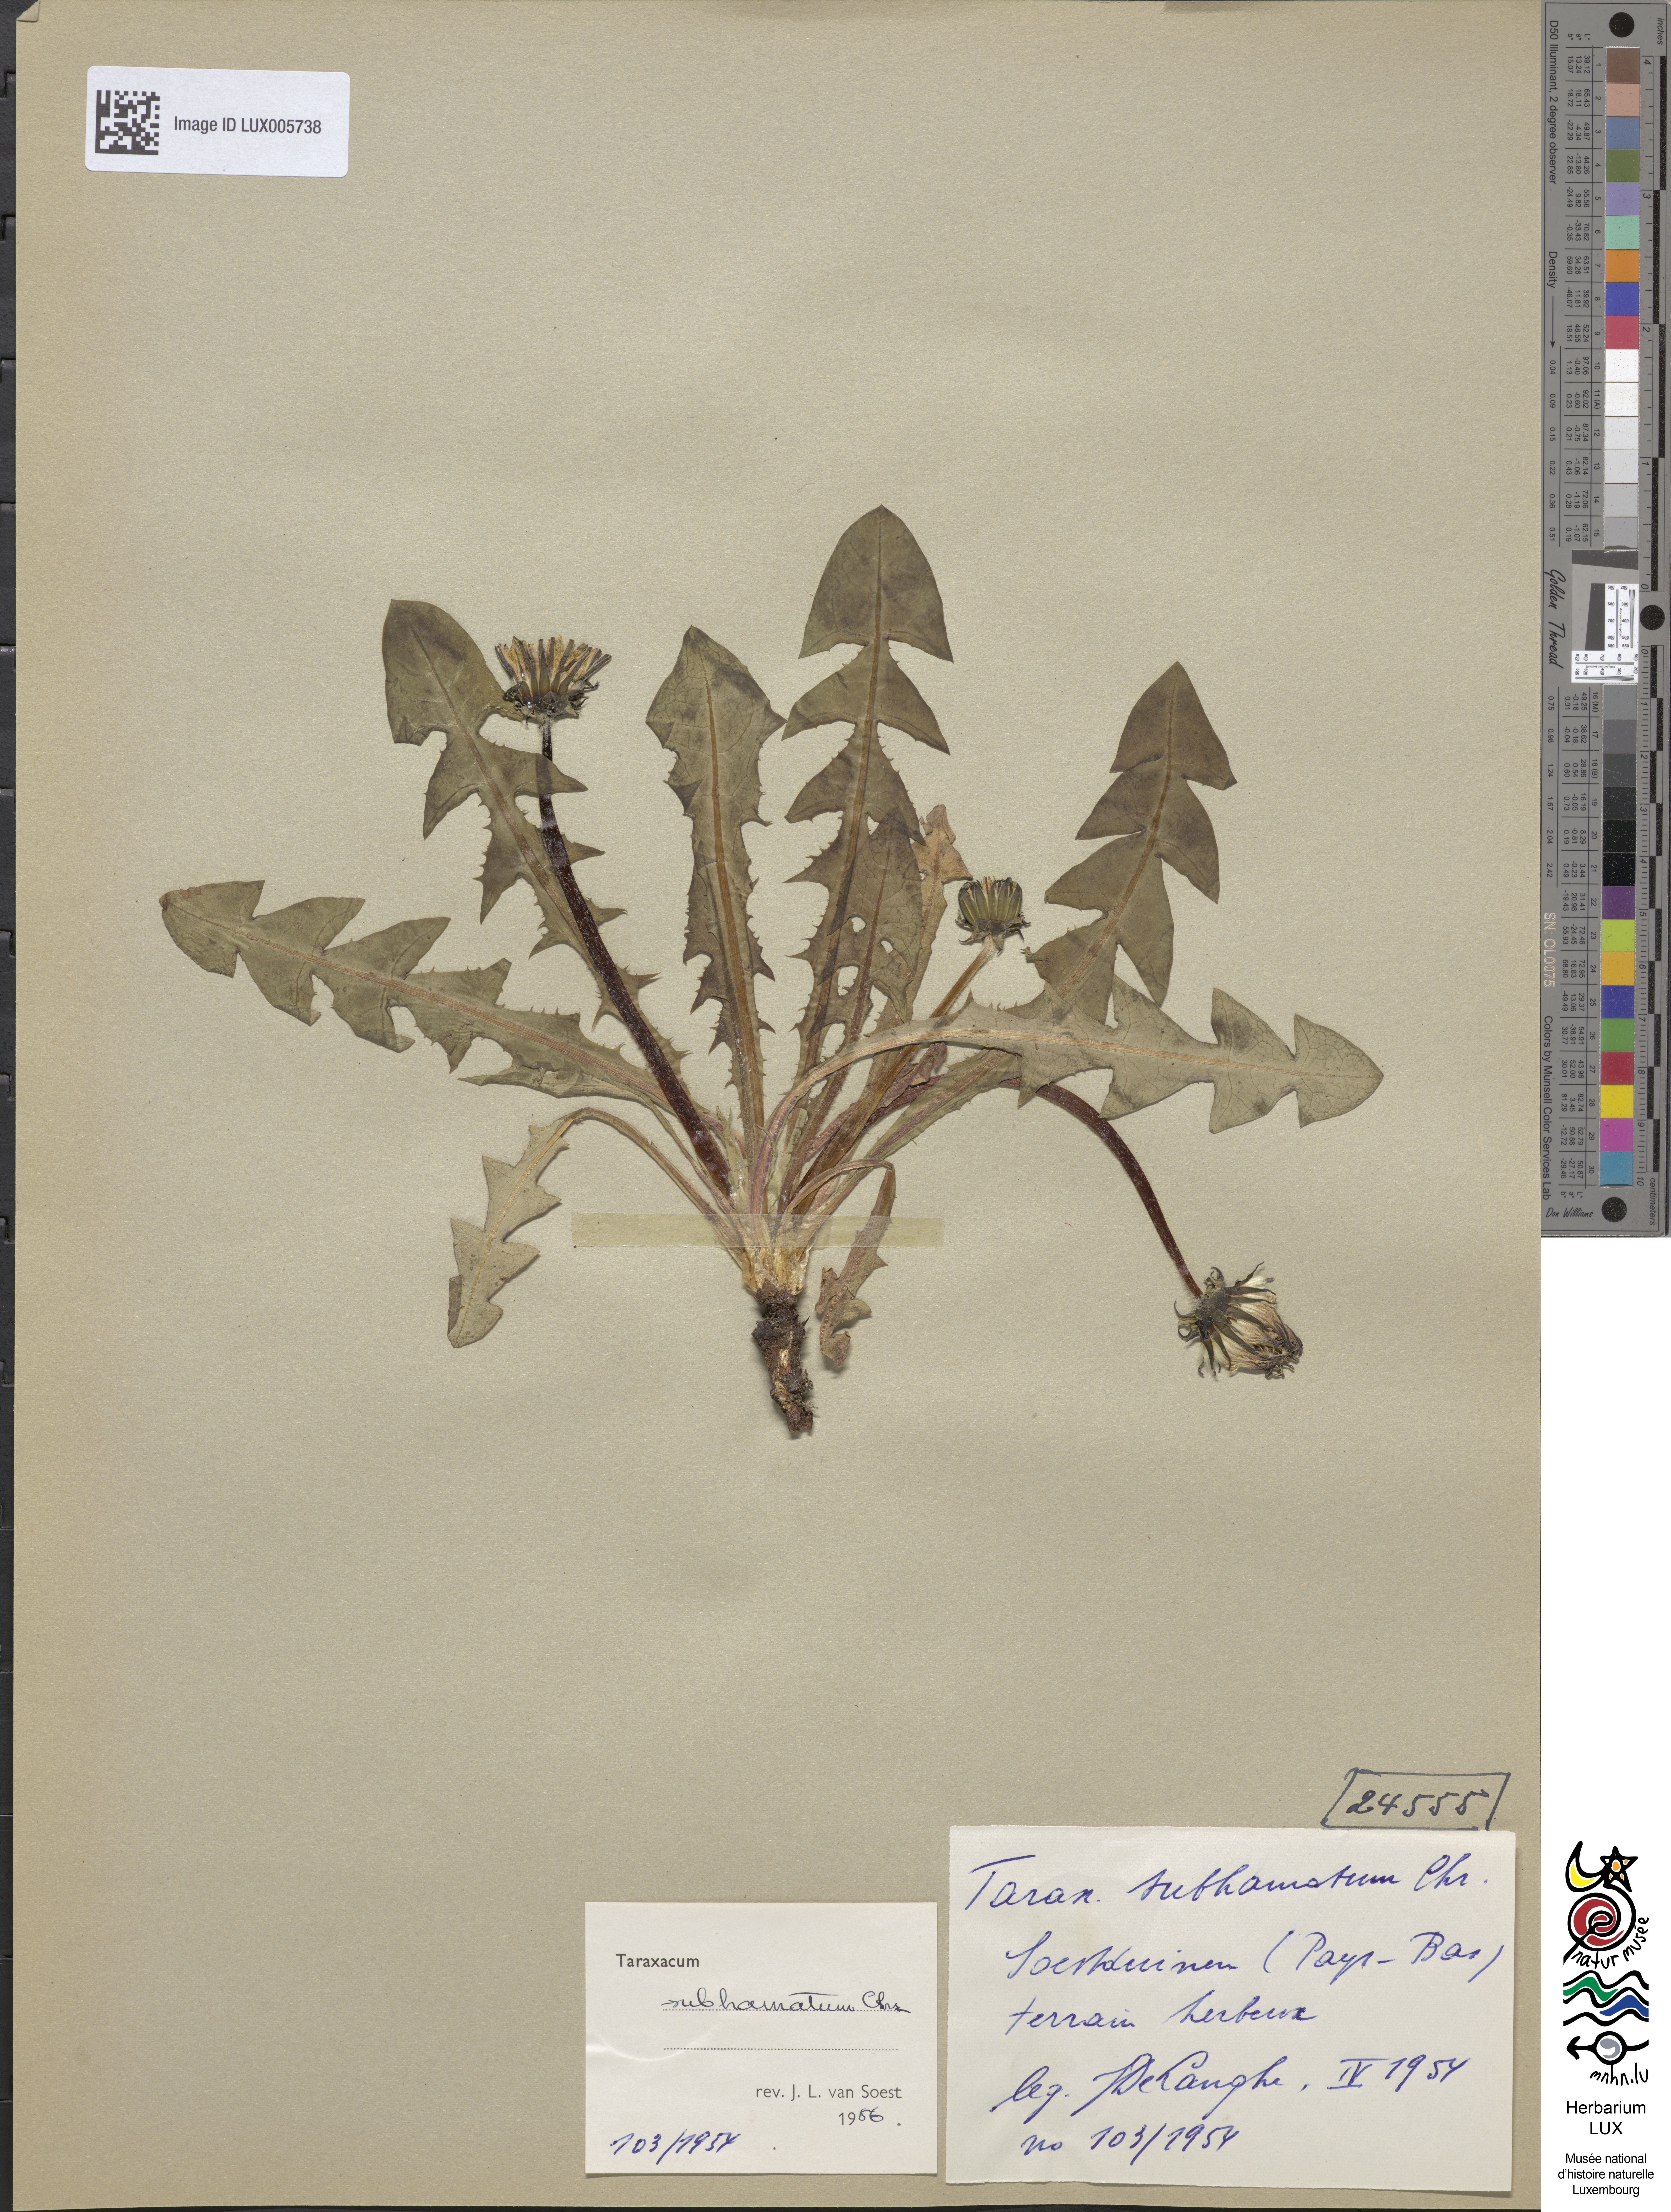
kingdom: Plantae
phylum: Tracheophyta
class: Magnoliopsida
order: Asterales
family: Asteraceae
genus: Taraxacum
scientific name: Taraxacum marklundii
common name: Marklund's dandelion
